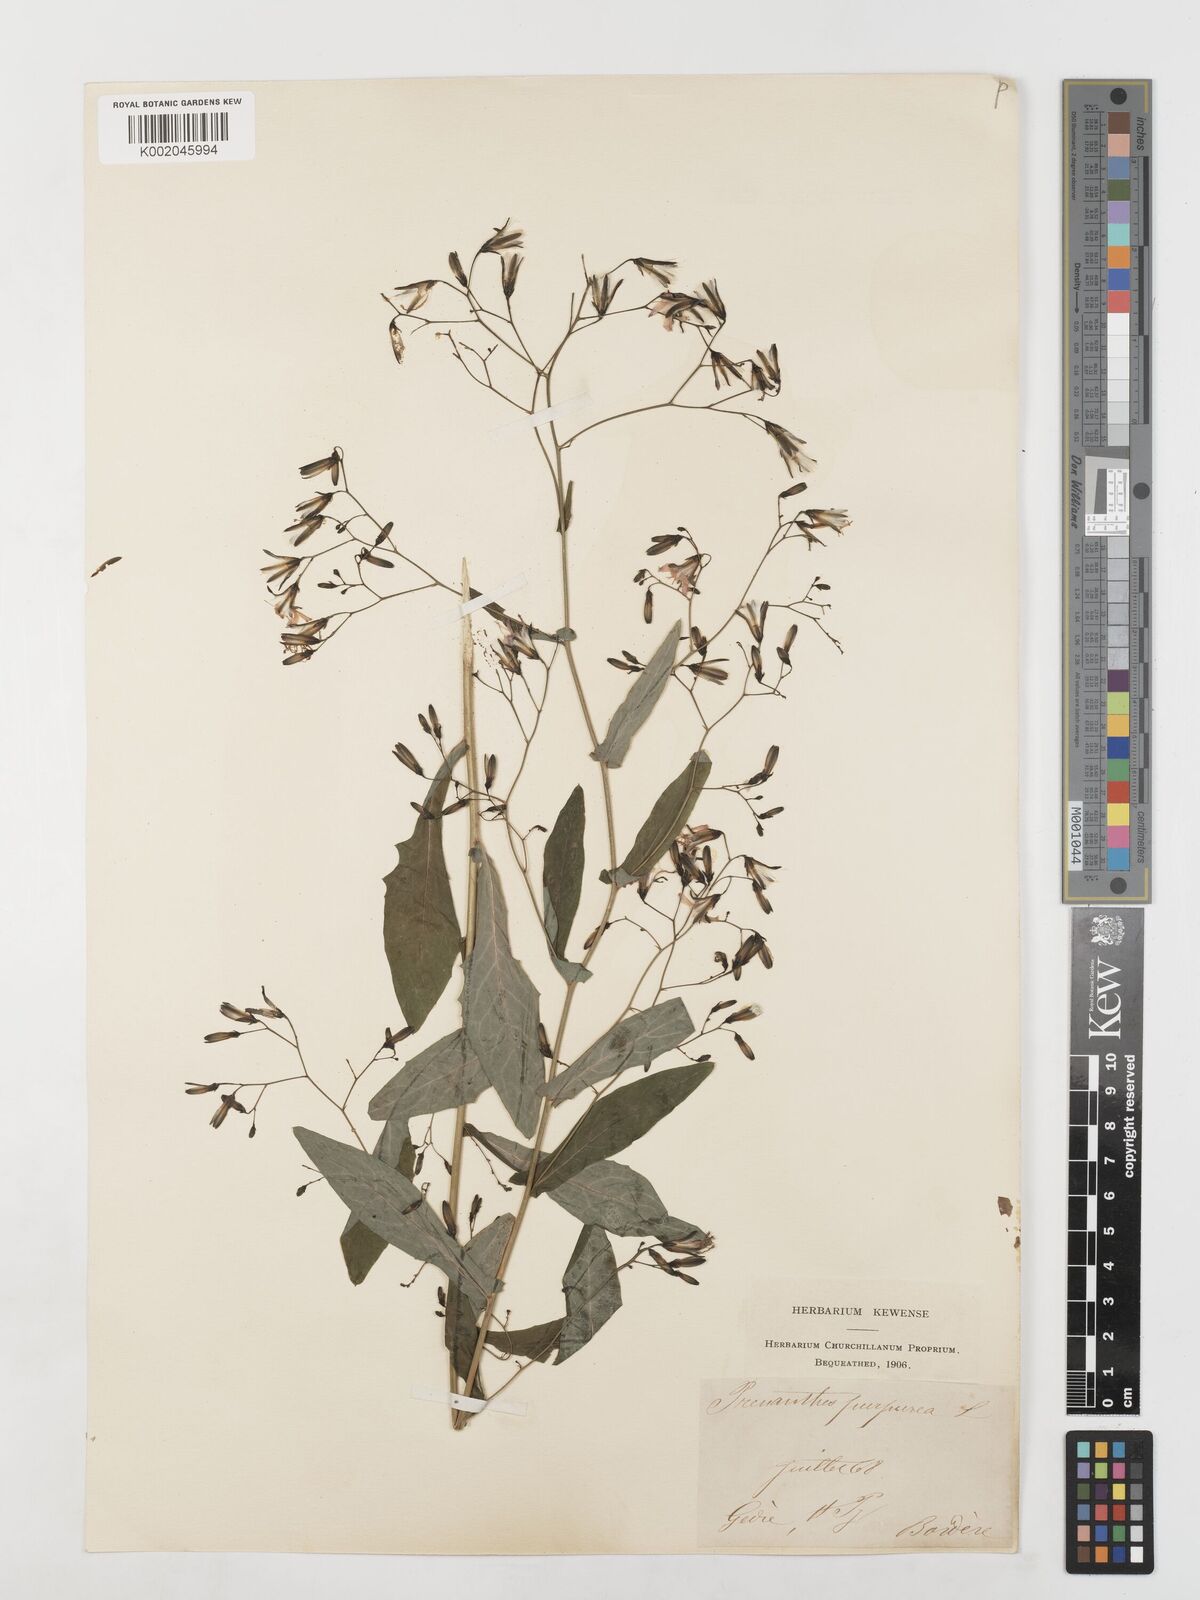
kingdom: Plantae
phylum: Tracheophyta
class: Magnoliopsida
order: Asterales
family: Asteraceae
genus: Prenanthes
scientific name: Prenanthes purpurea
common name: Purple lettuce
